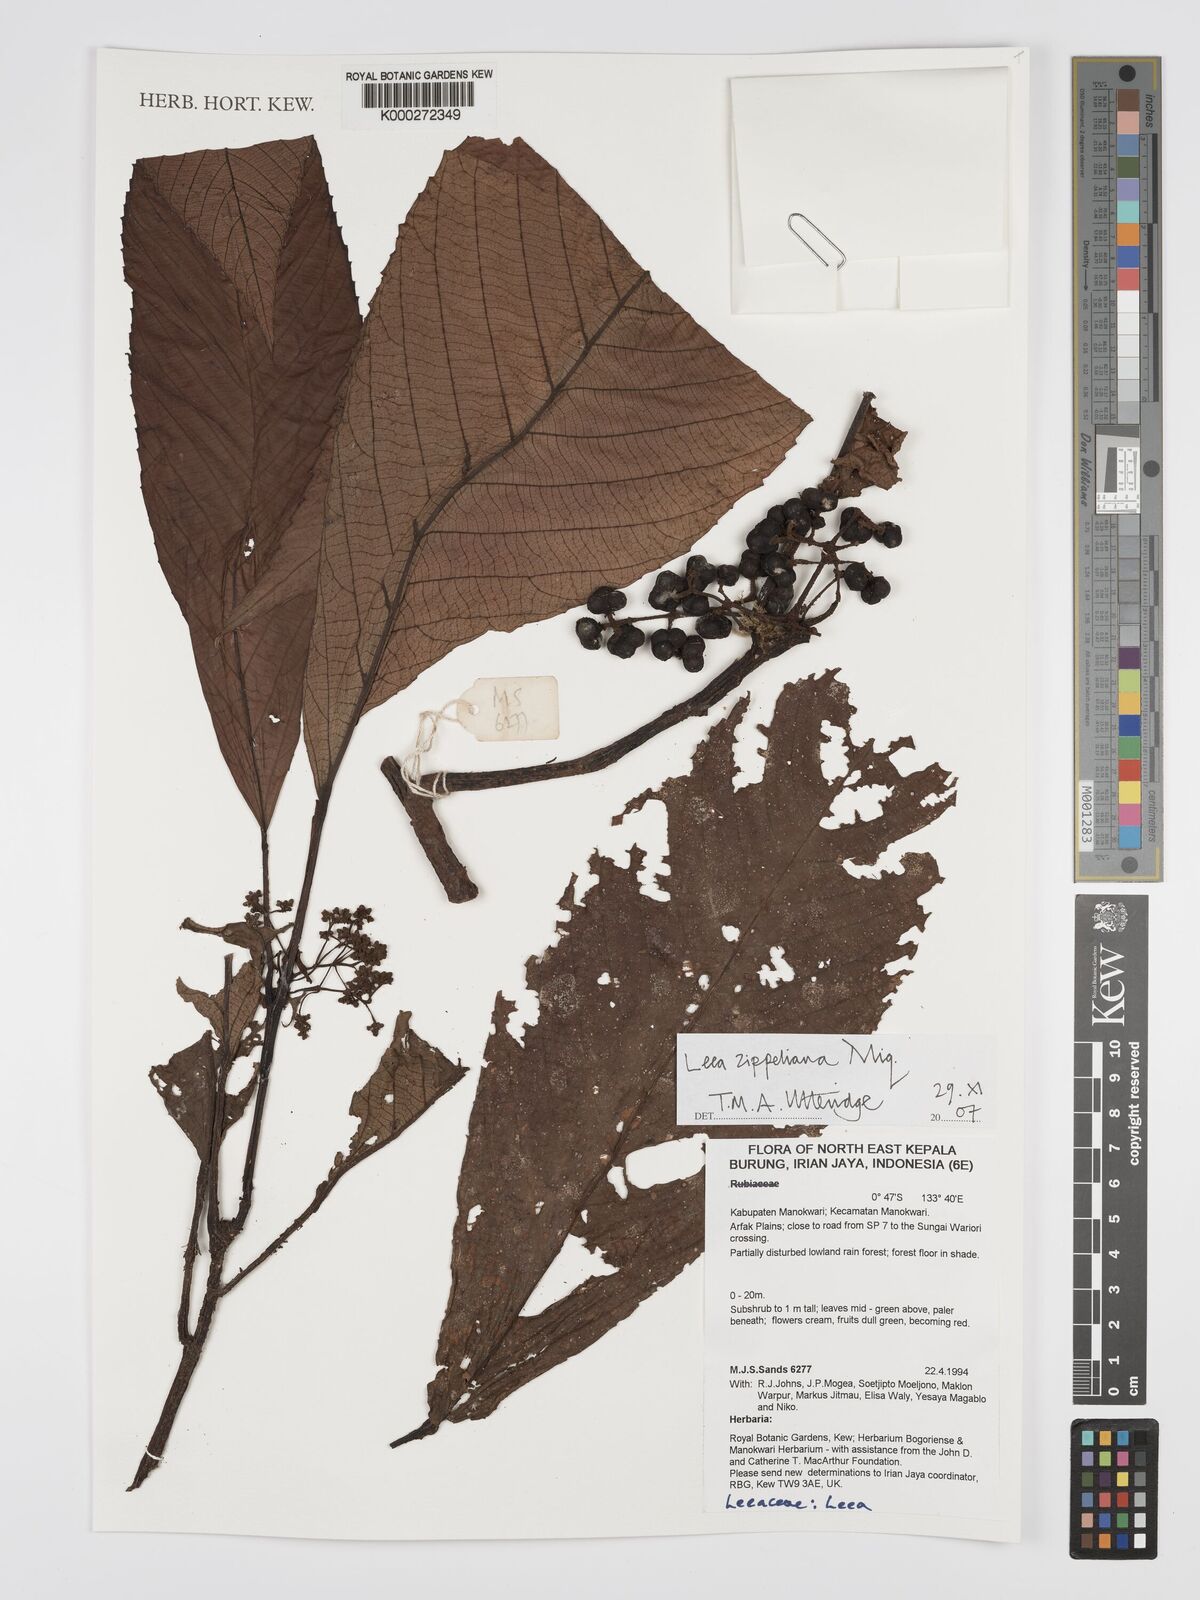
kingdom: Plantae
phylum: Tracheophyta
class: Magnoliopsida
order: Vitales
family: Vitaceae
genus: Leea
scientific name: Leea zippeliana
